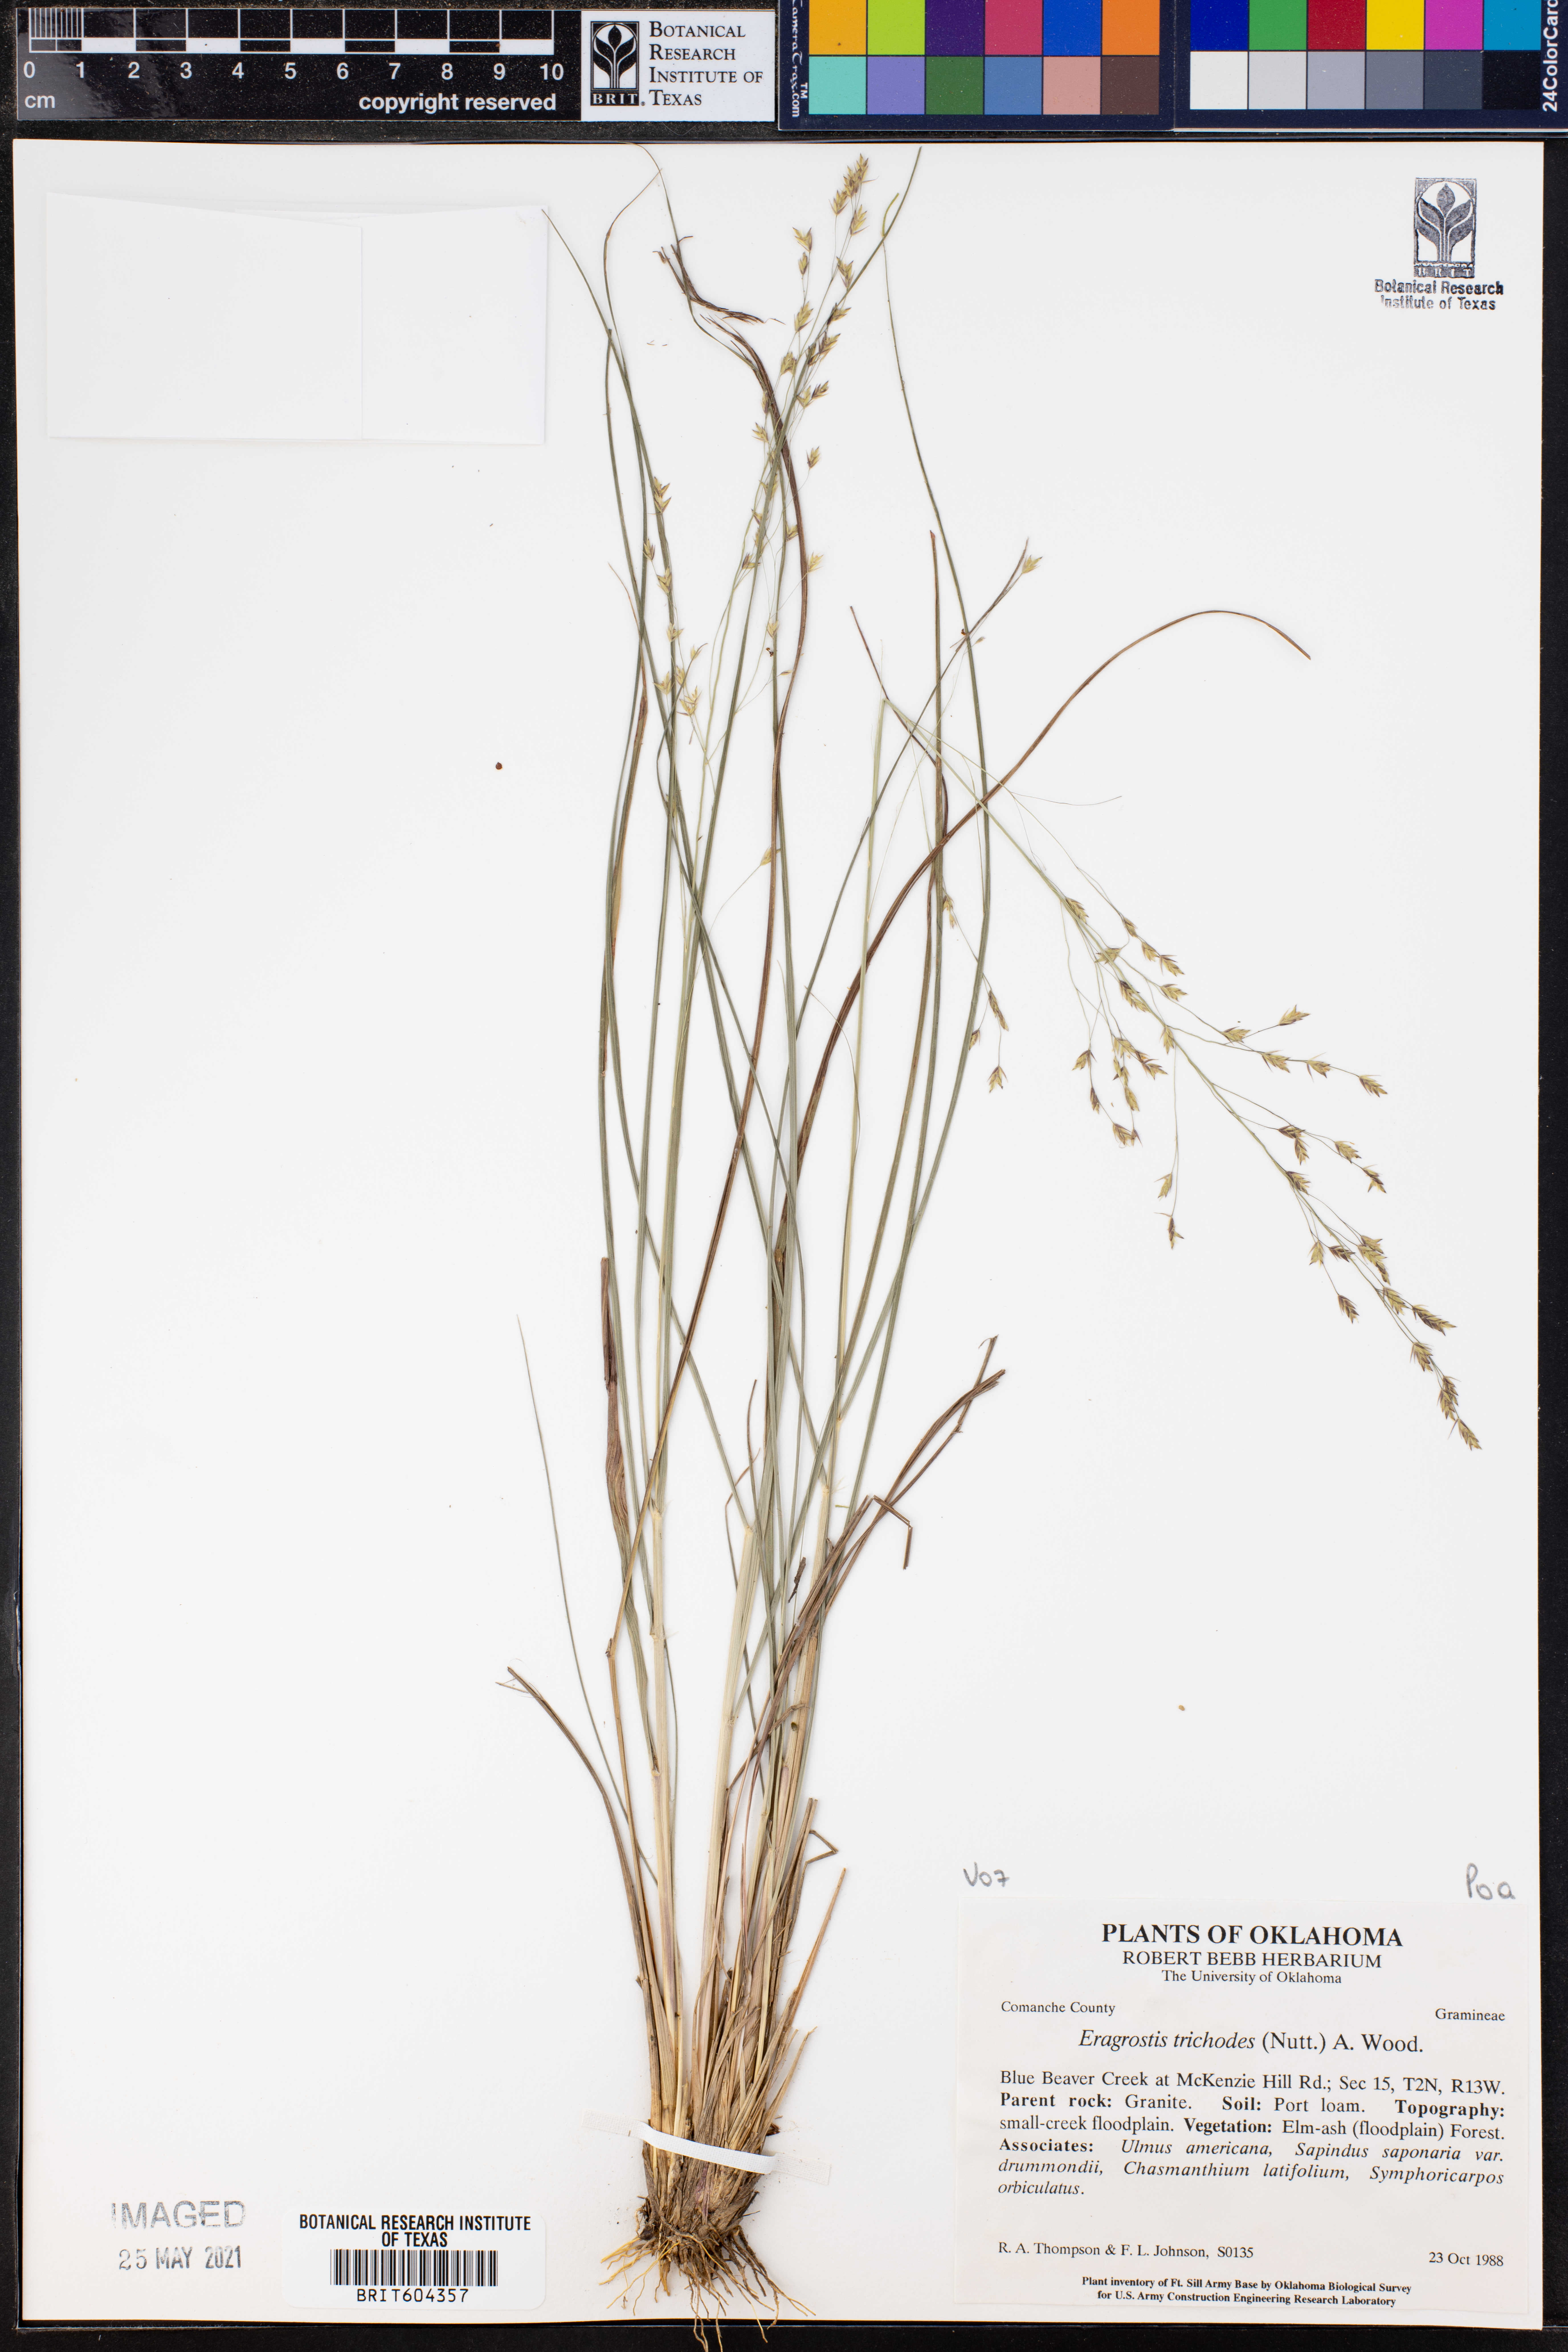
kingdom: Plantae
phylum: Tracheophyta
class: Liliopsida
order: Poales
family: Poaceae
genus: Eragrostis
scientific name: Eragrostis trichodes
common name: Sand love grass
